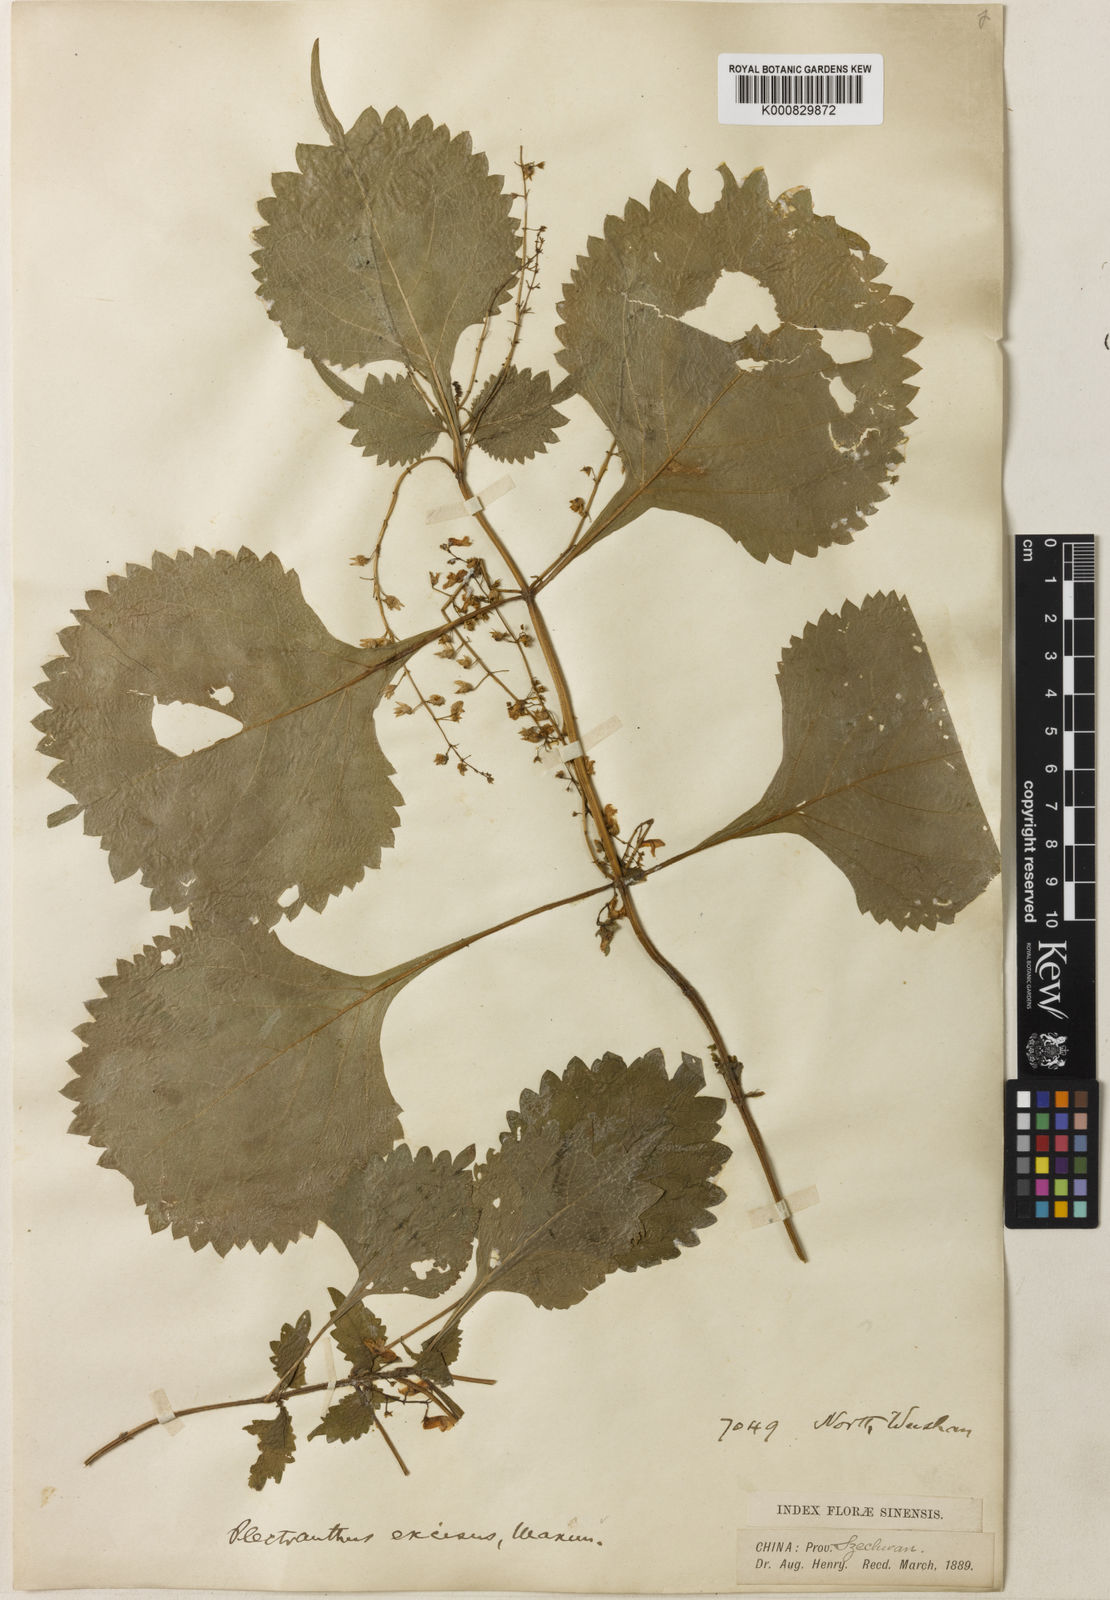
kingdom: Plantae
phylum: Tracheophyta
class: Magnoliopsida
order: Lamiales
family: Lamiaceae
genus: Isodon
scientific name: Isodon
